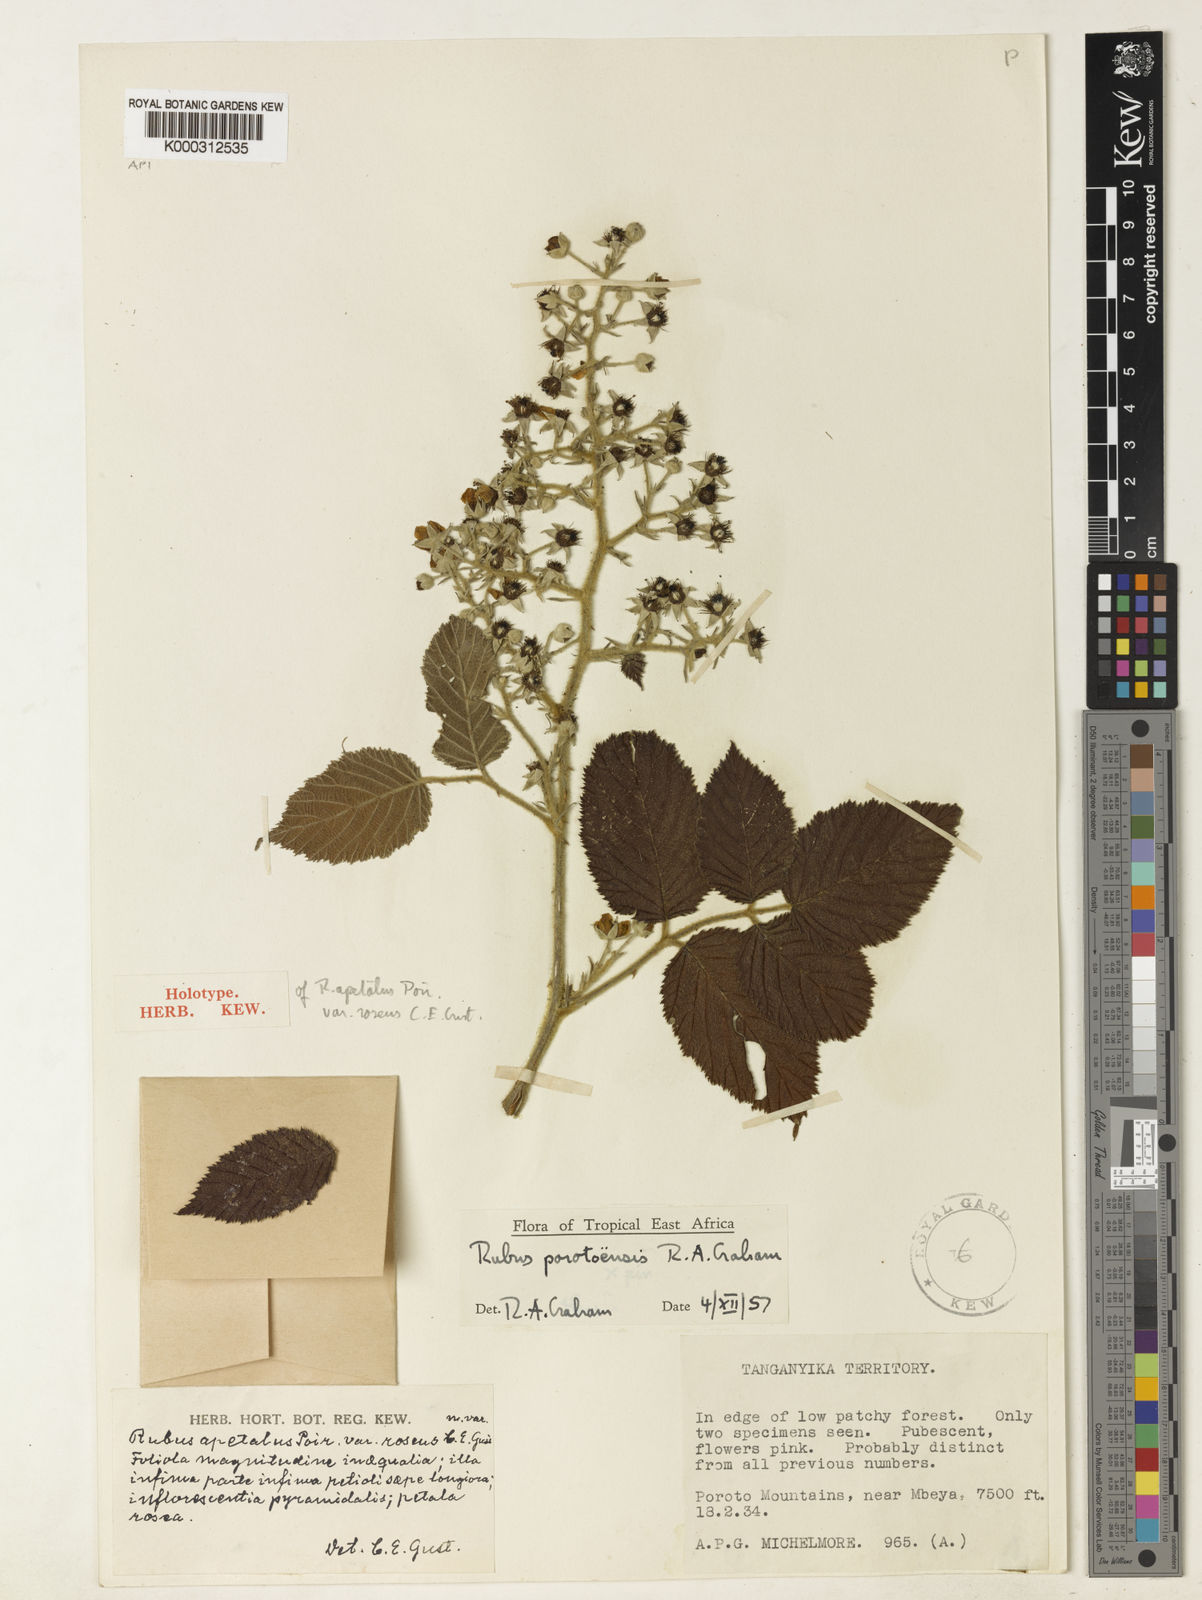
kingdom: Plantae
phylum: Tracheophyta
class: Magnoliopsida
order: Rosales
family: Rosaceae
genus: Rubus
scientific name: Rubus porotoensis
